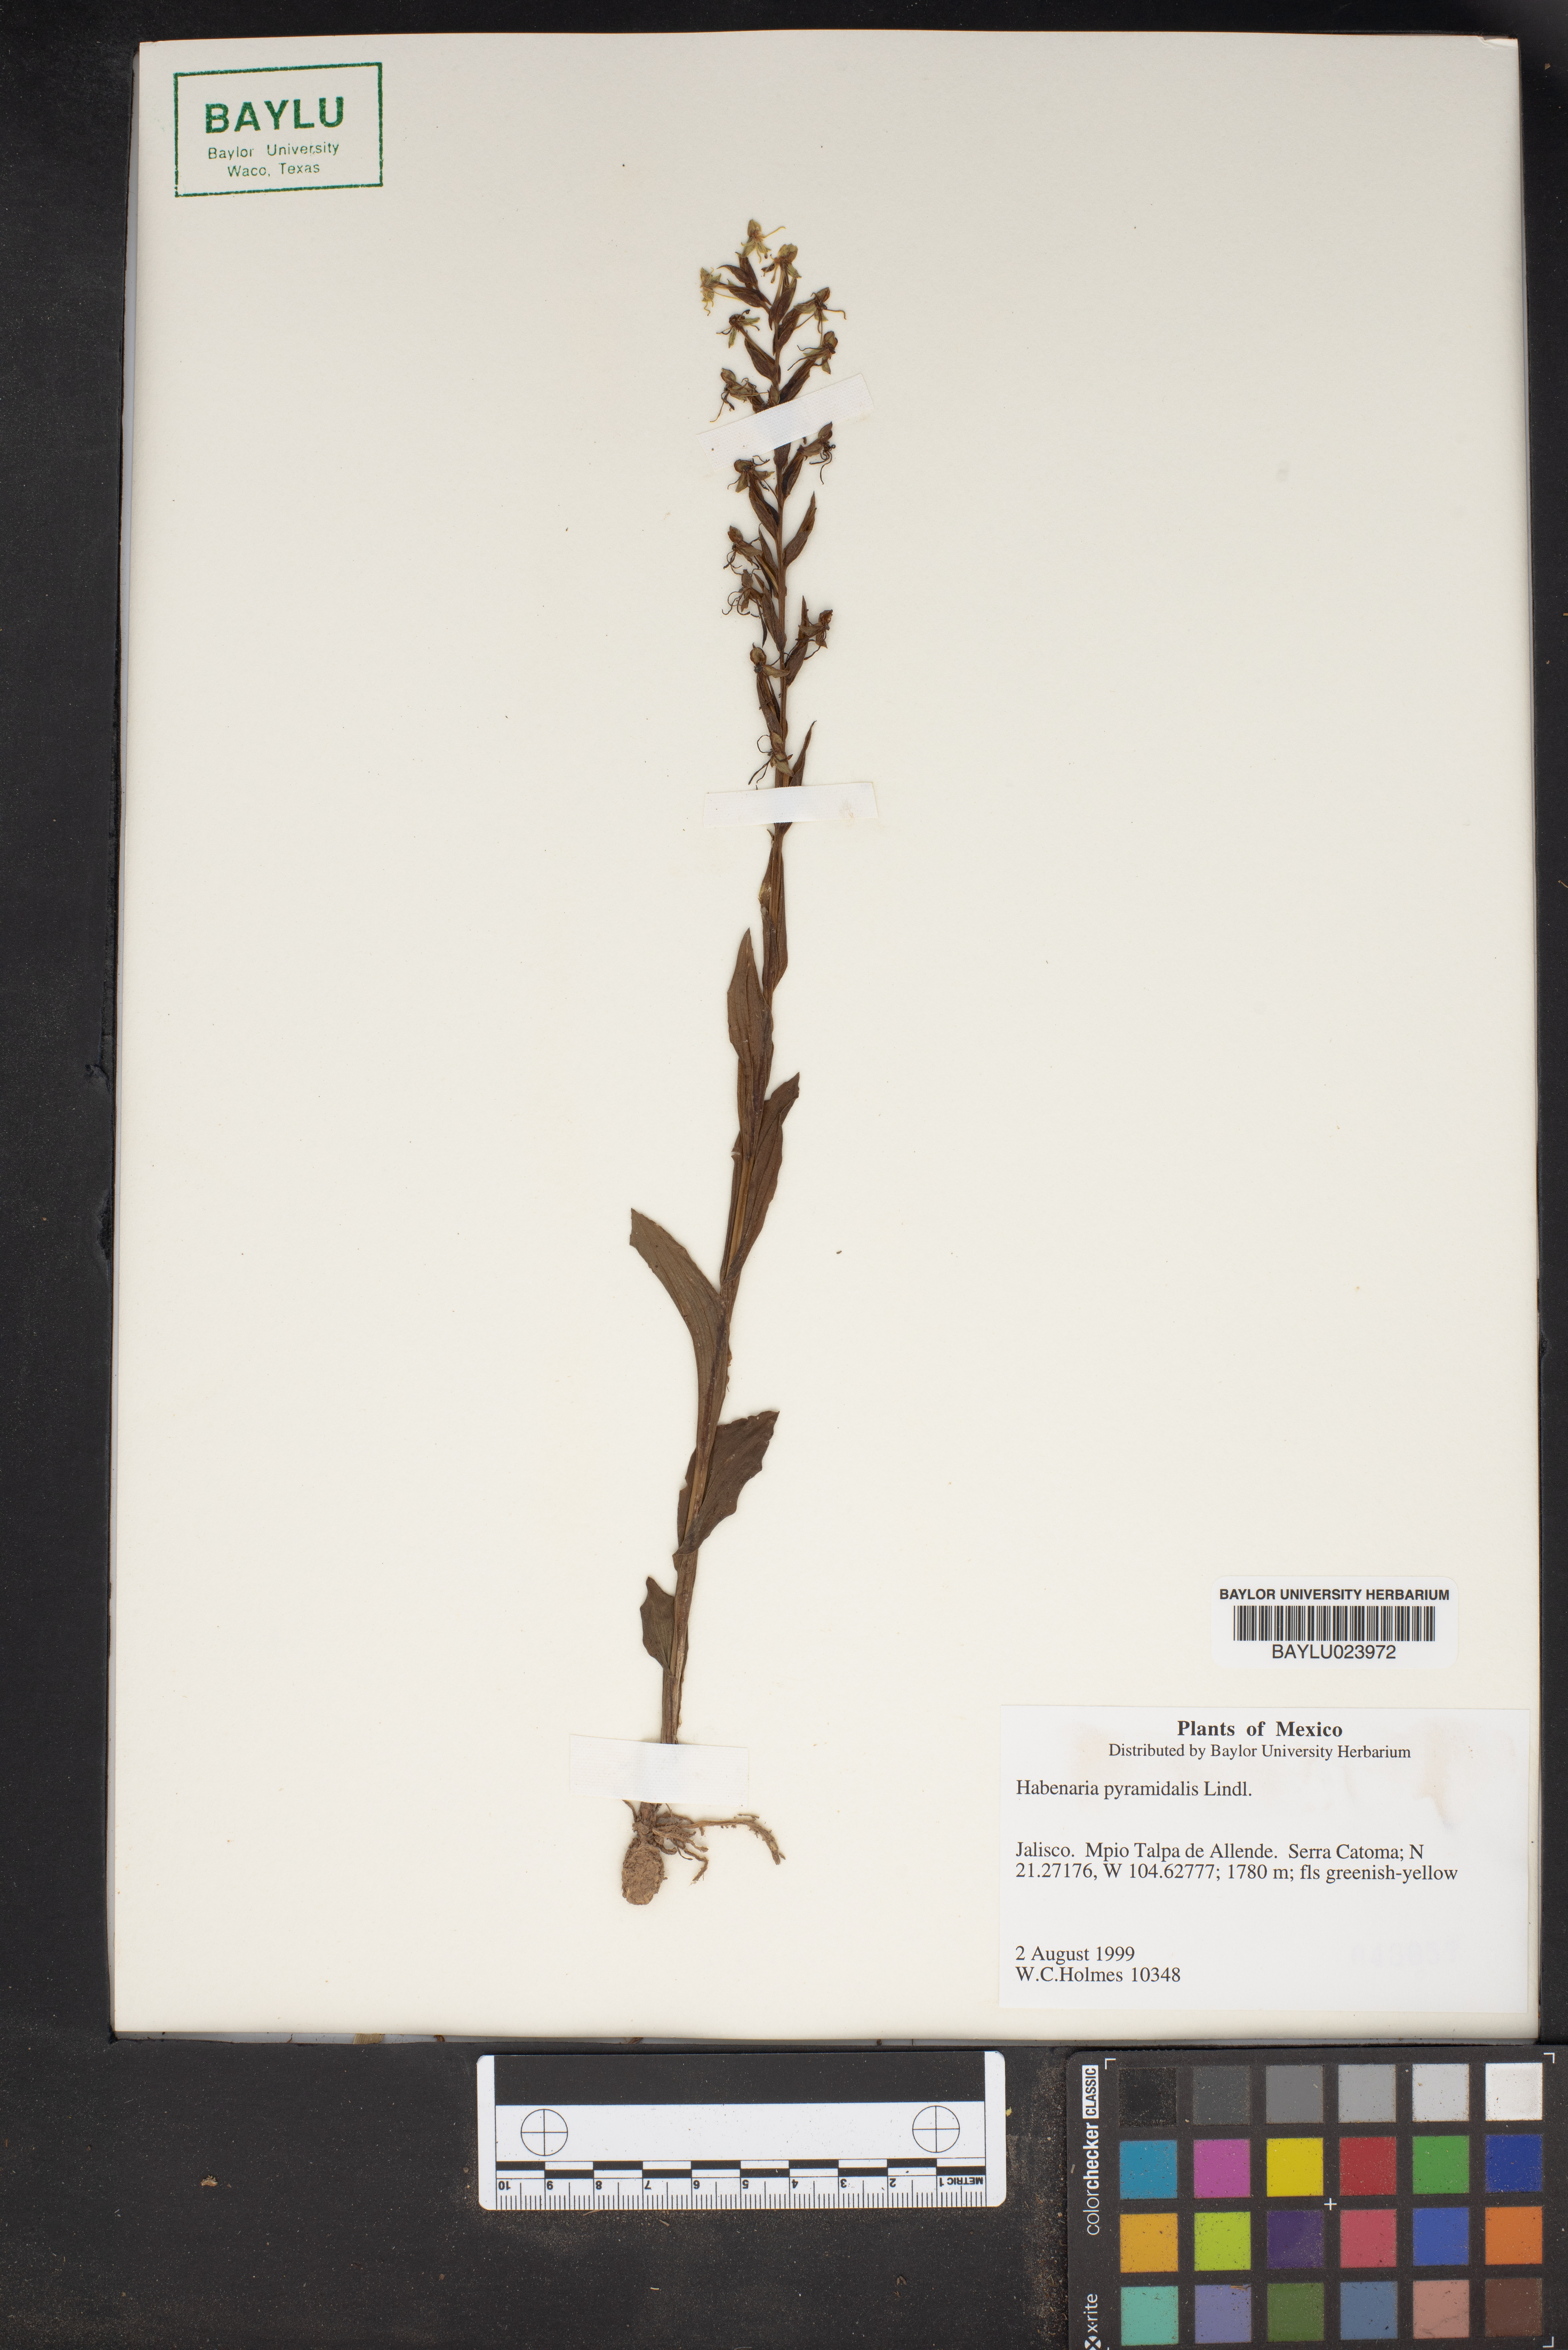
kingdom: Plantae
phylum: Tracheophyta
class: Liliopsida
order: Asparagales
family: Orchidaceae
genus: Habenaria
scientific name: Habenaria strictissima
